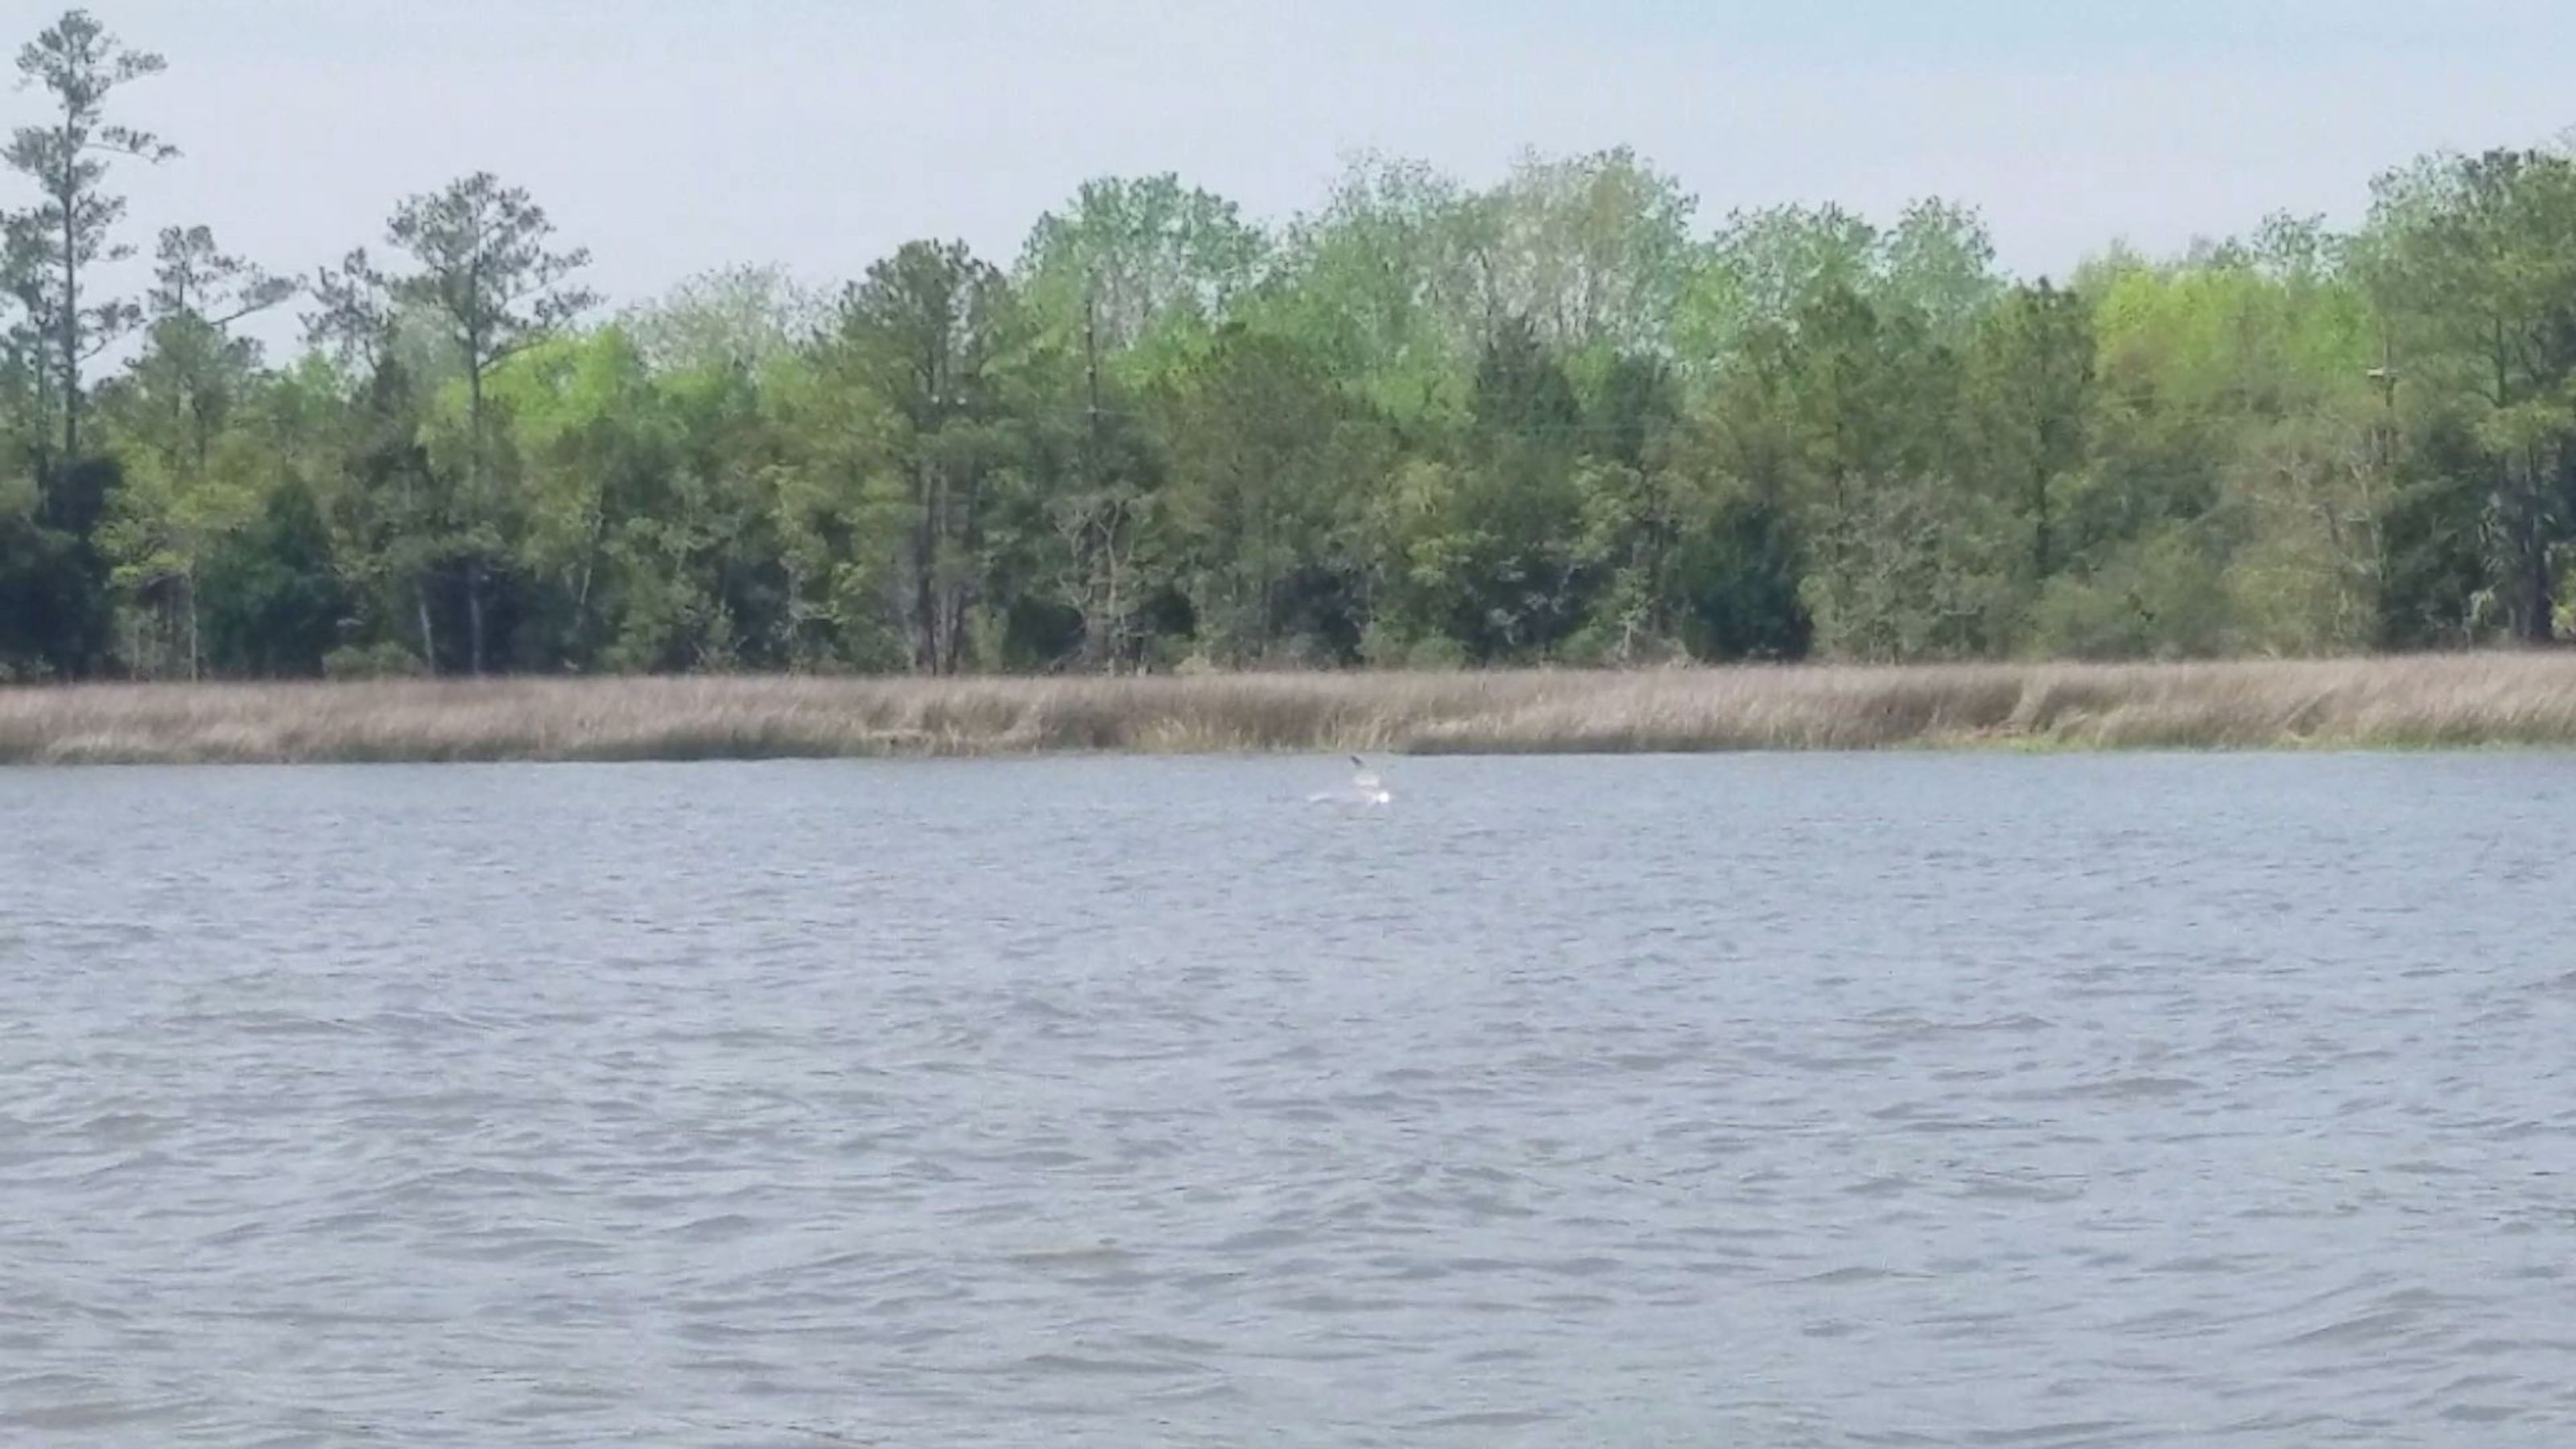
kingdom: Animalia
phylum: Chordata
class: Mammalia
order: Cetacea
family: Delphinidae
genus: Tursiops
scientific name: Tursiops truncatus
